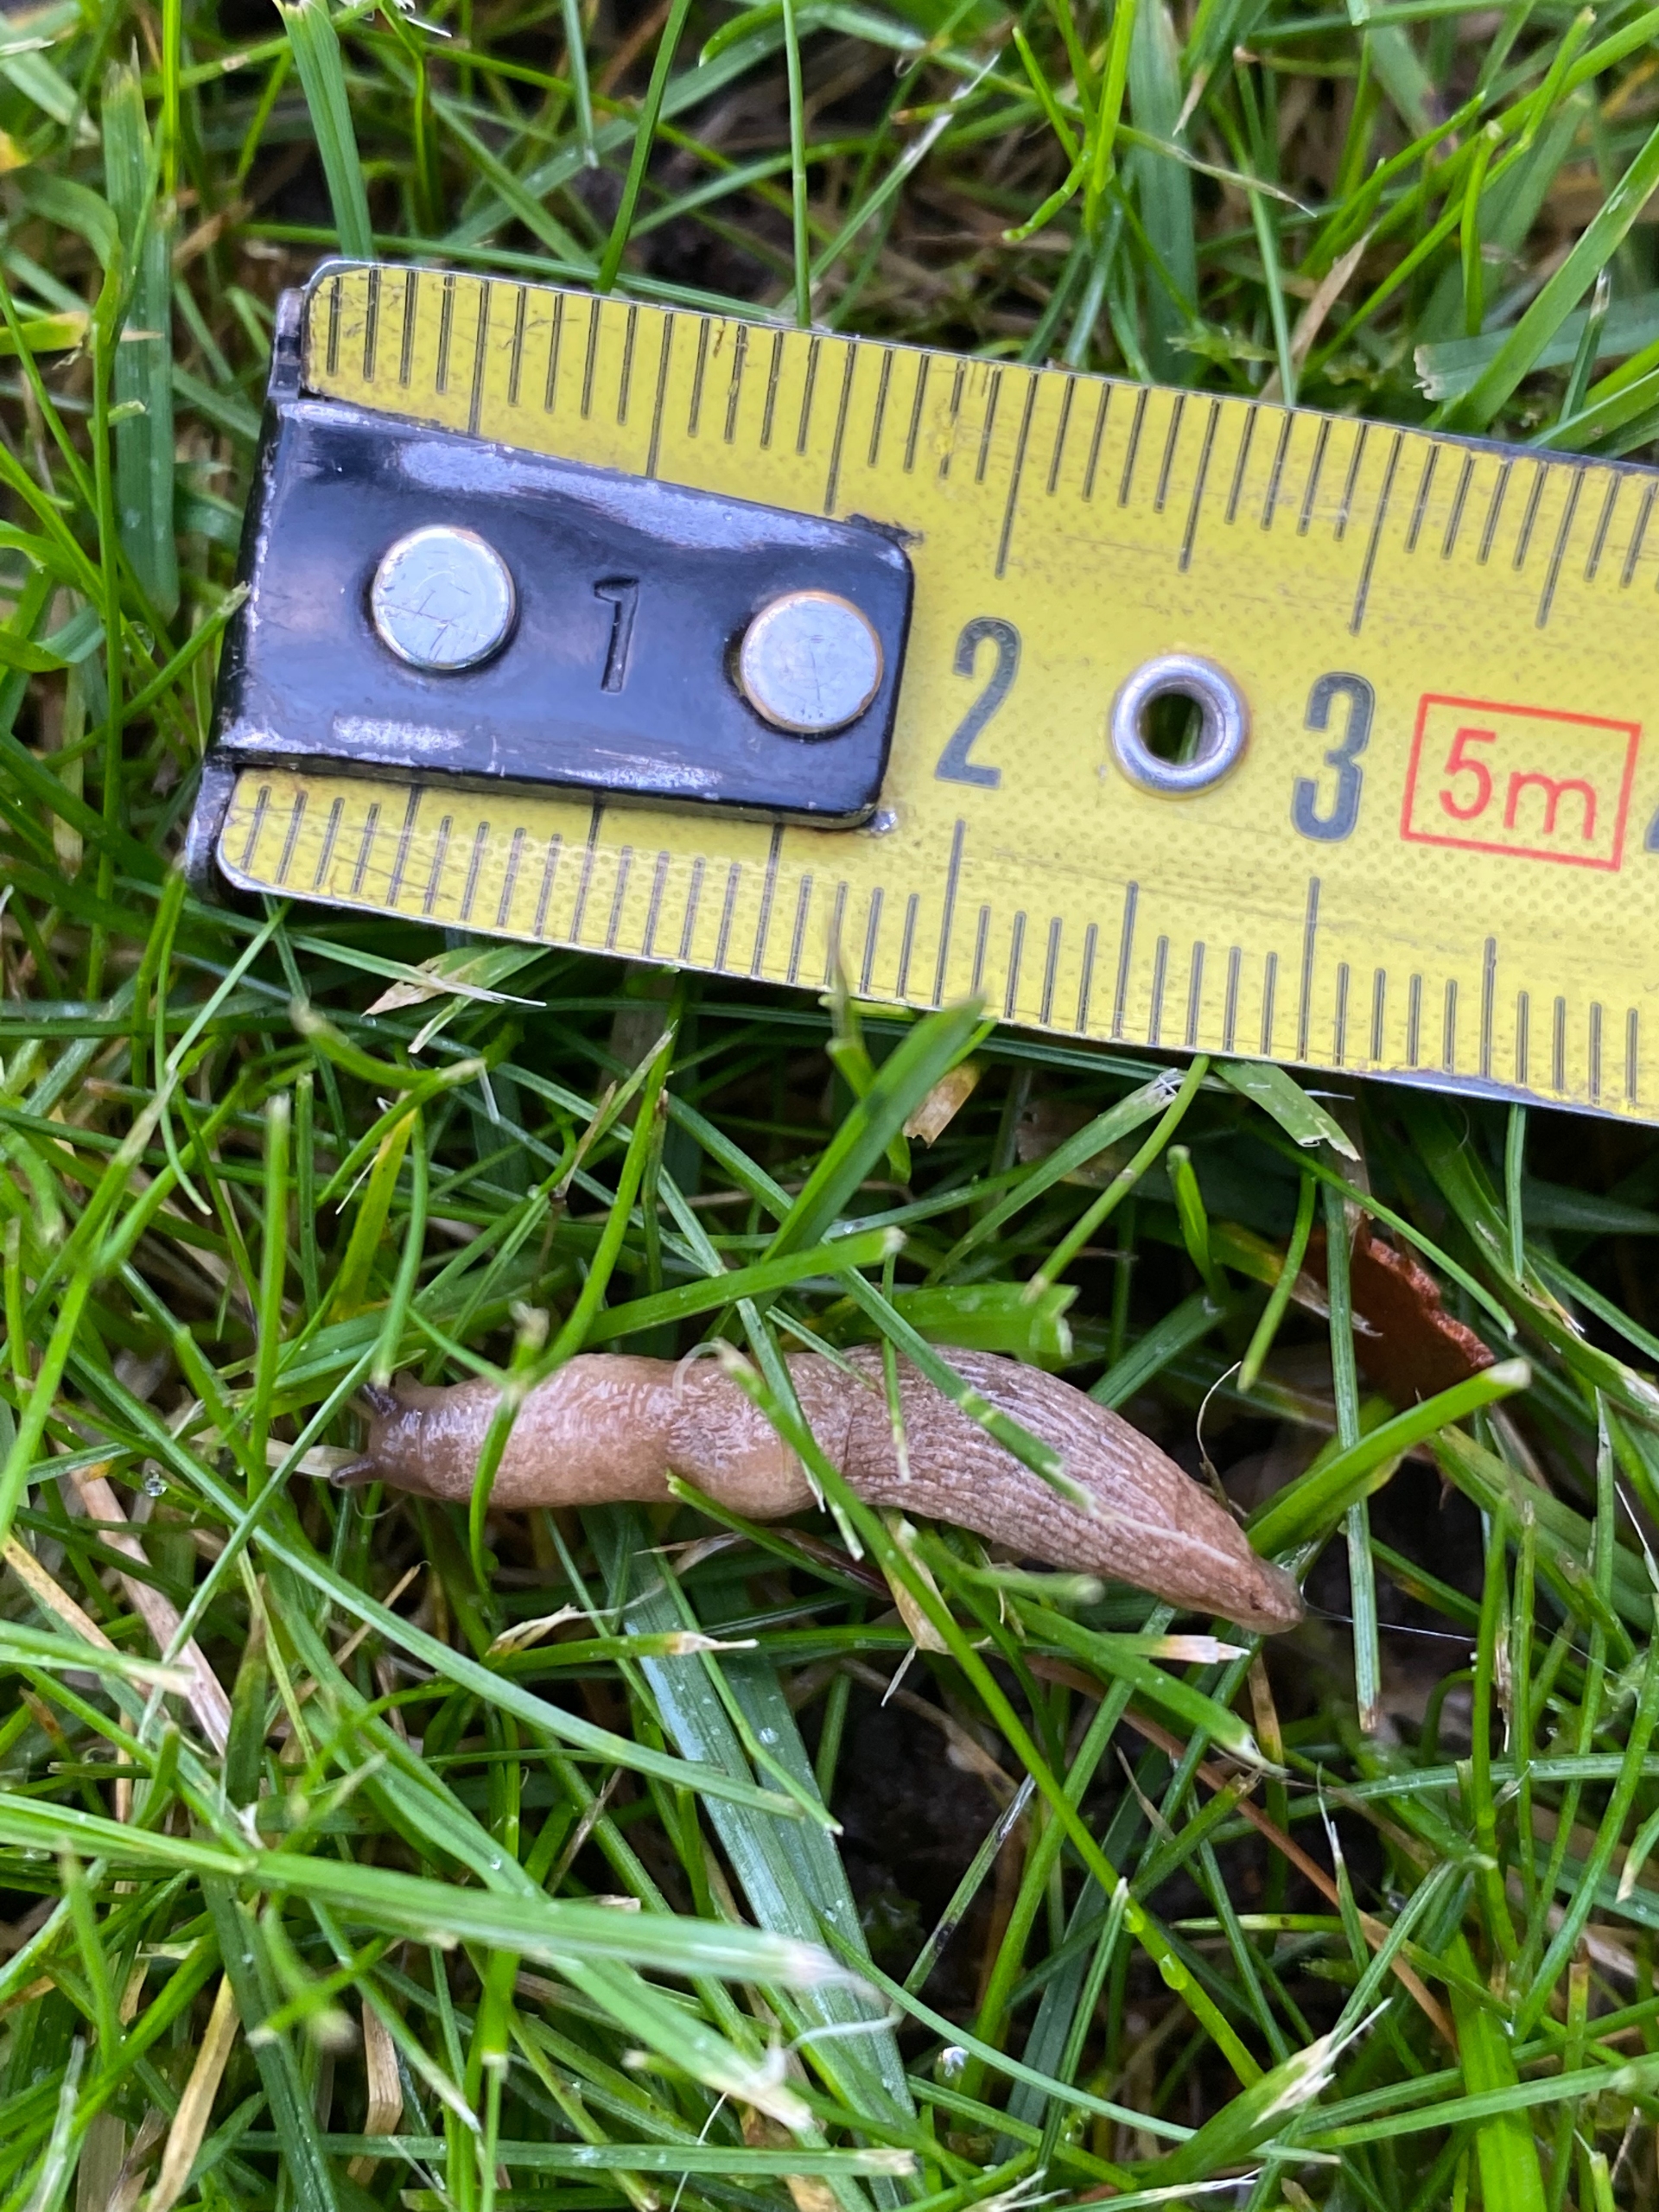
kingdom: Animalia
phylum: Mollusca
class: Gastropoda
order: Stylommatophora
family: Agriolimacidae
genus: Deroceras
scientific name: Deroceras agreste
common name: Agersnegl
